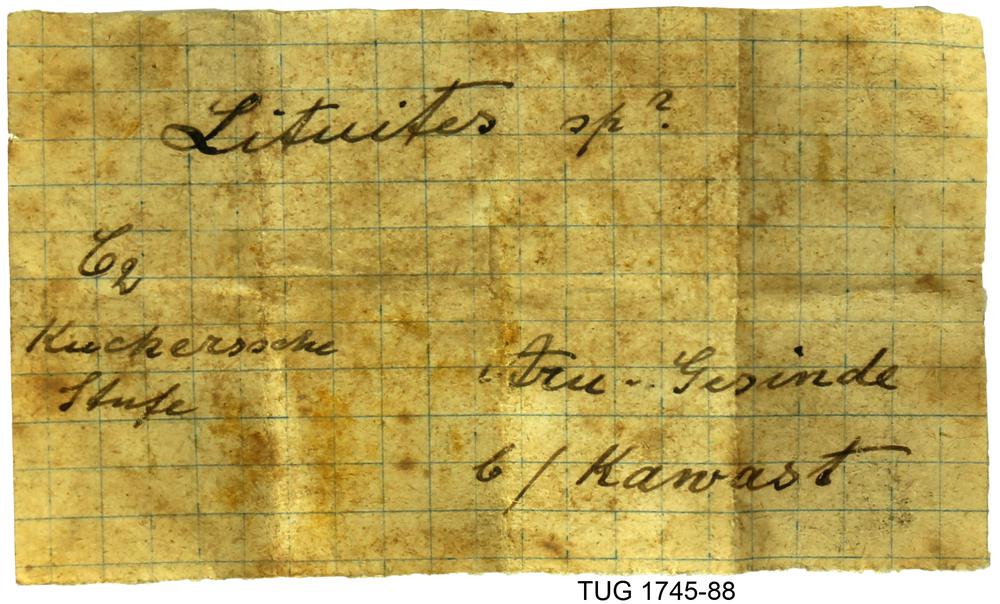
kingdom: Animalia
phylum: Mollusca
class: Cephalopoda
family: Lituitidae
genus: Lituites
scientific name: Lituites
